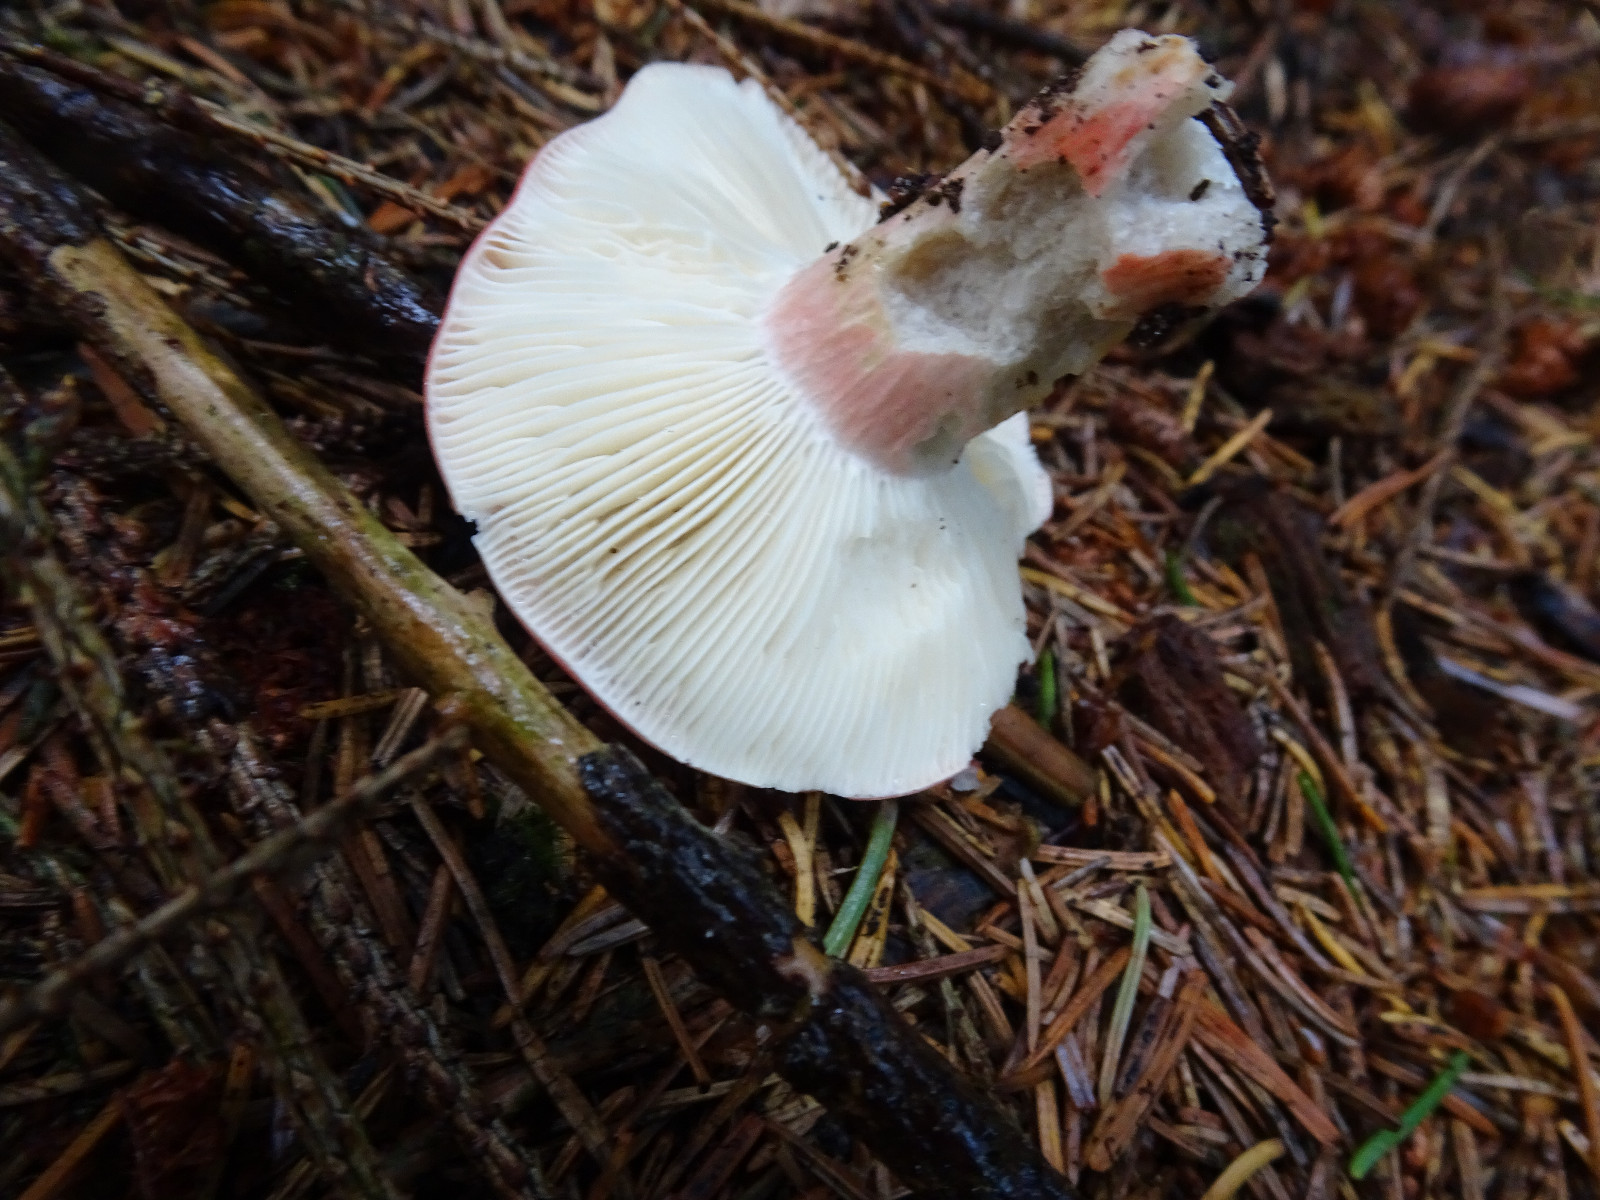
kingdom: Fungi
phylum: Basidiomycota
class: Agaricomycetes
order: Russulales
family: Russulaceae
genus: Russula
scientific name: Russula
